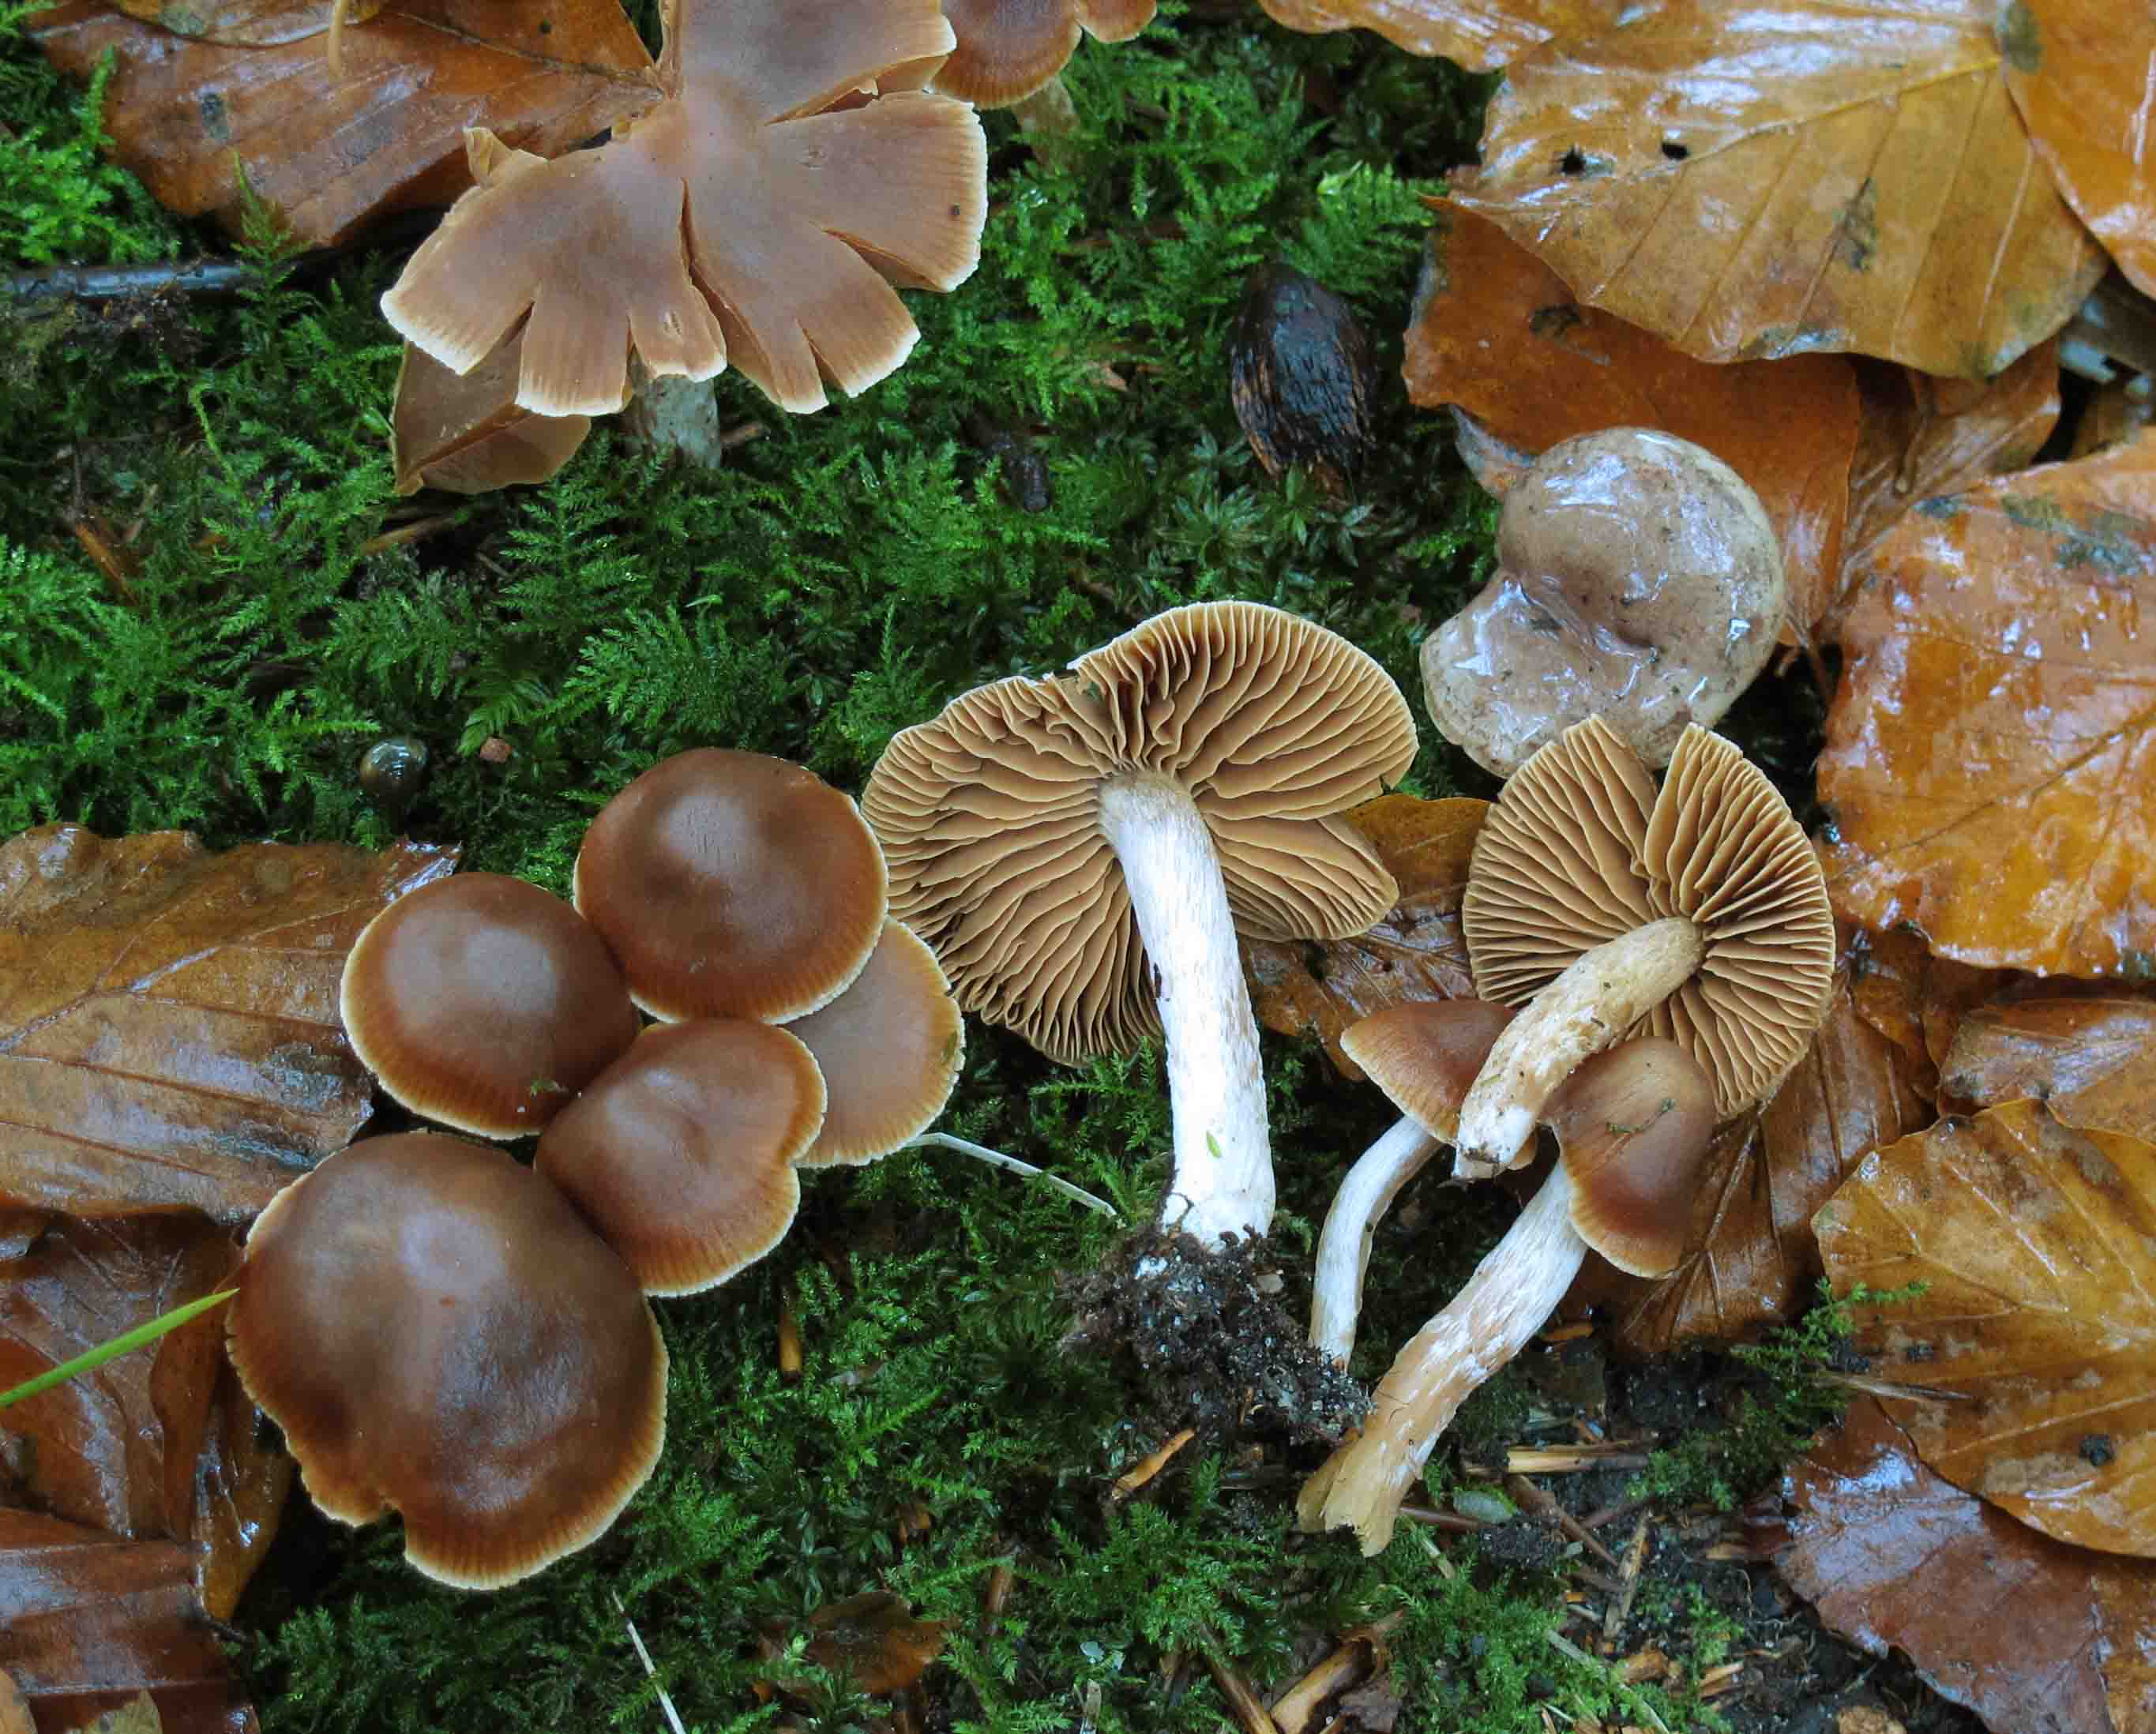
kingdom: Fungi
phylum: Basidiomycota
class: Agaricomycetes
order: Agaricales
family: Cortinariaceae
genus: Cortinarius
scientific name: Cortinarius incisus
